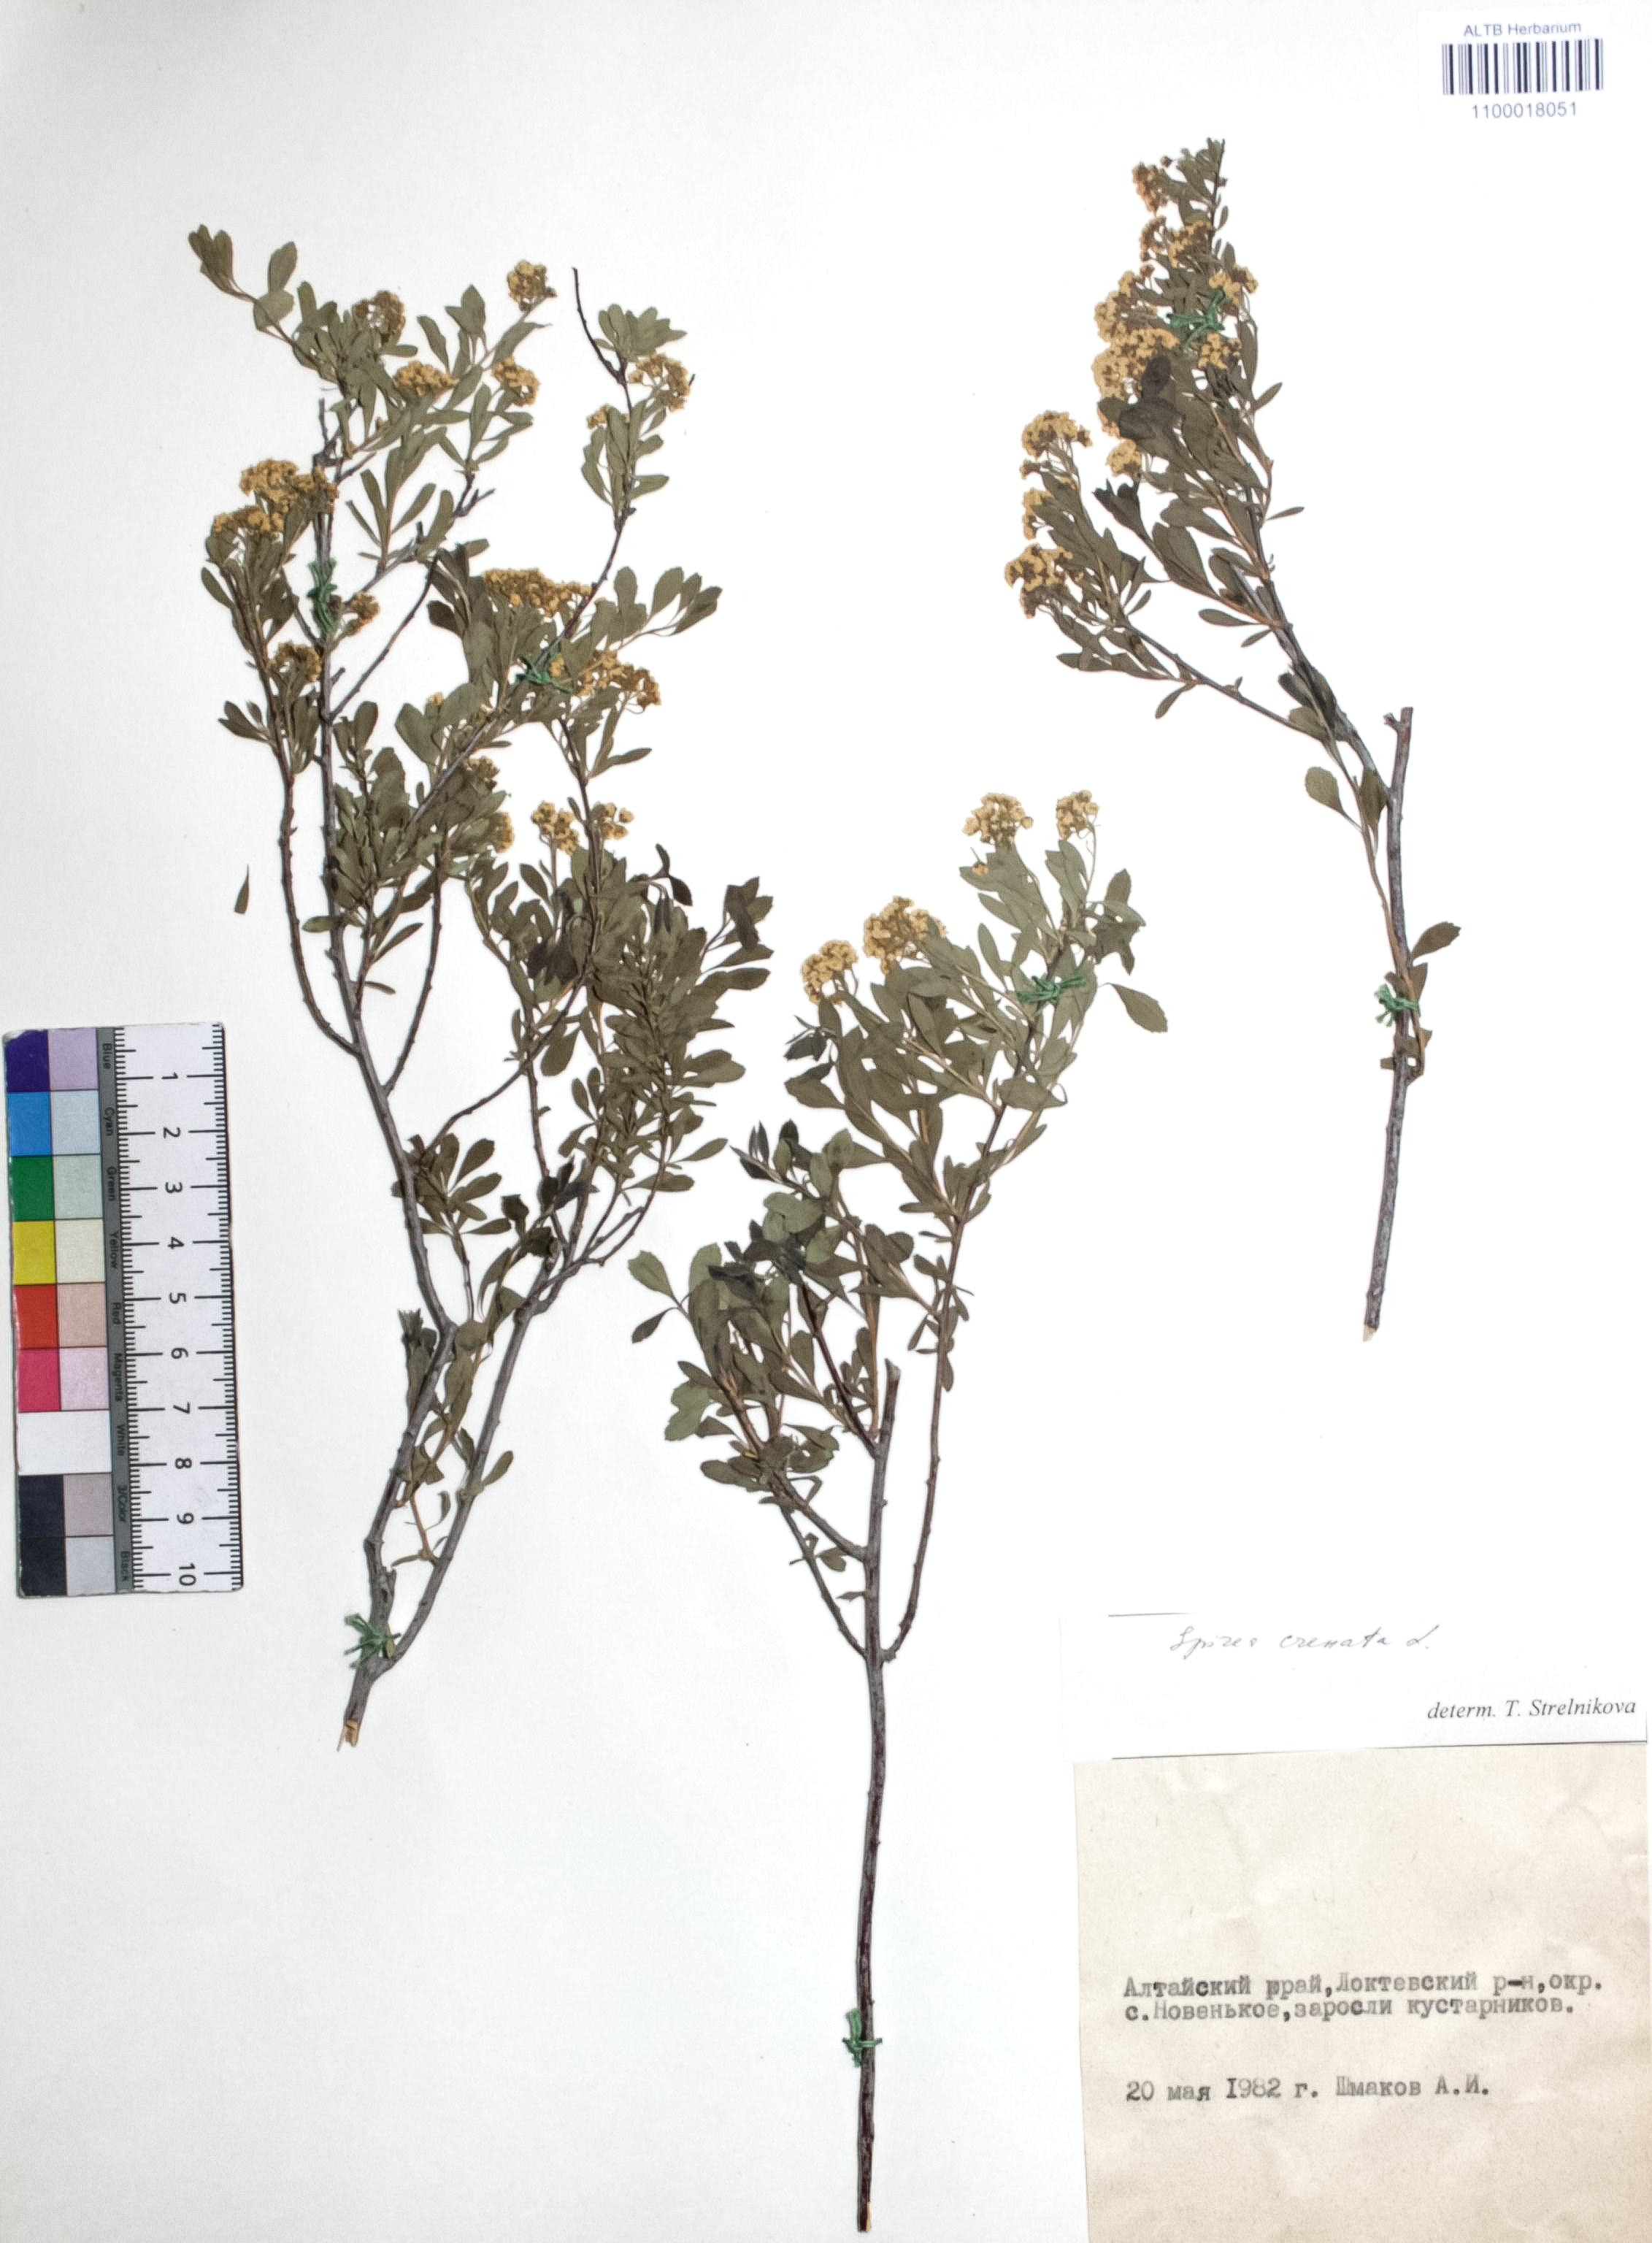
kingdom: Plantae
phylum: Tracheophyta
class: Magnoliopsida
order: Rosales
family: Rosaceae
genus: Spiraea
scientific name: Spiraea crenata
